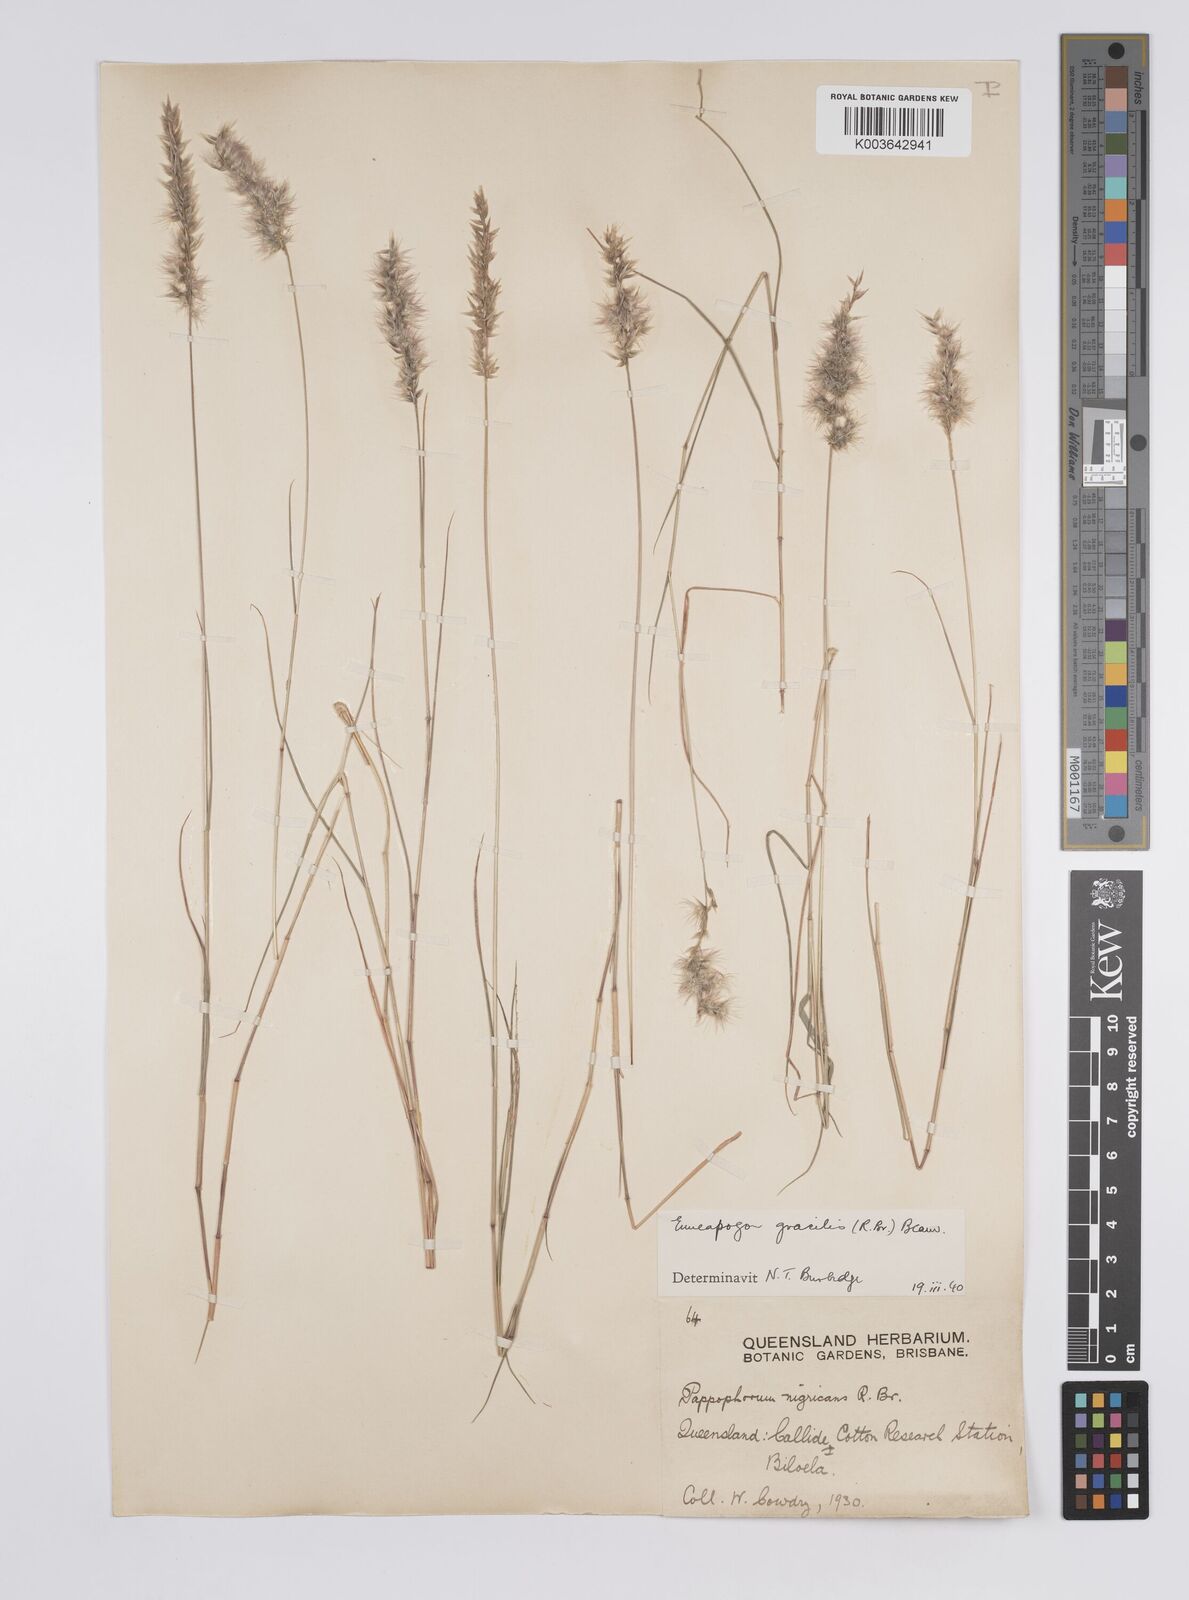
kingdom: Plantae
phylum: Tracheophyta
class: Liliopsida
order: Poales
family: Poaceae
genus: Enneapogon
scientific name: Enneapogon gracilis
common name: Slender bottle-washers
